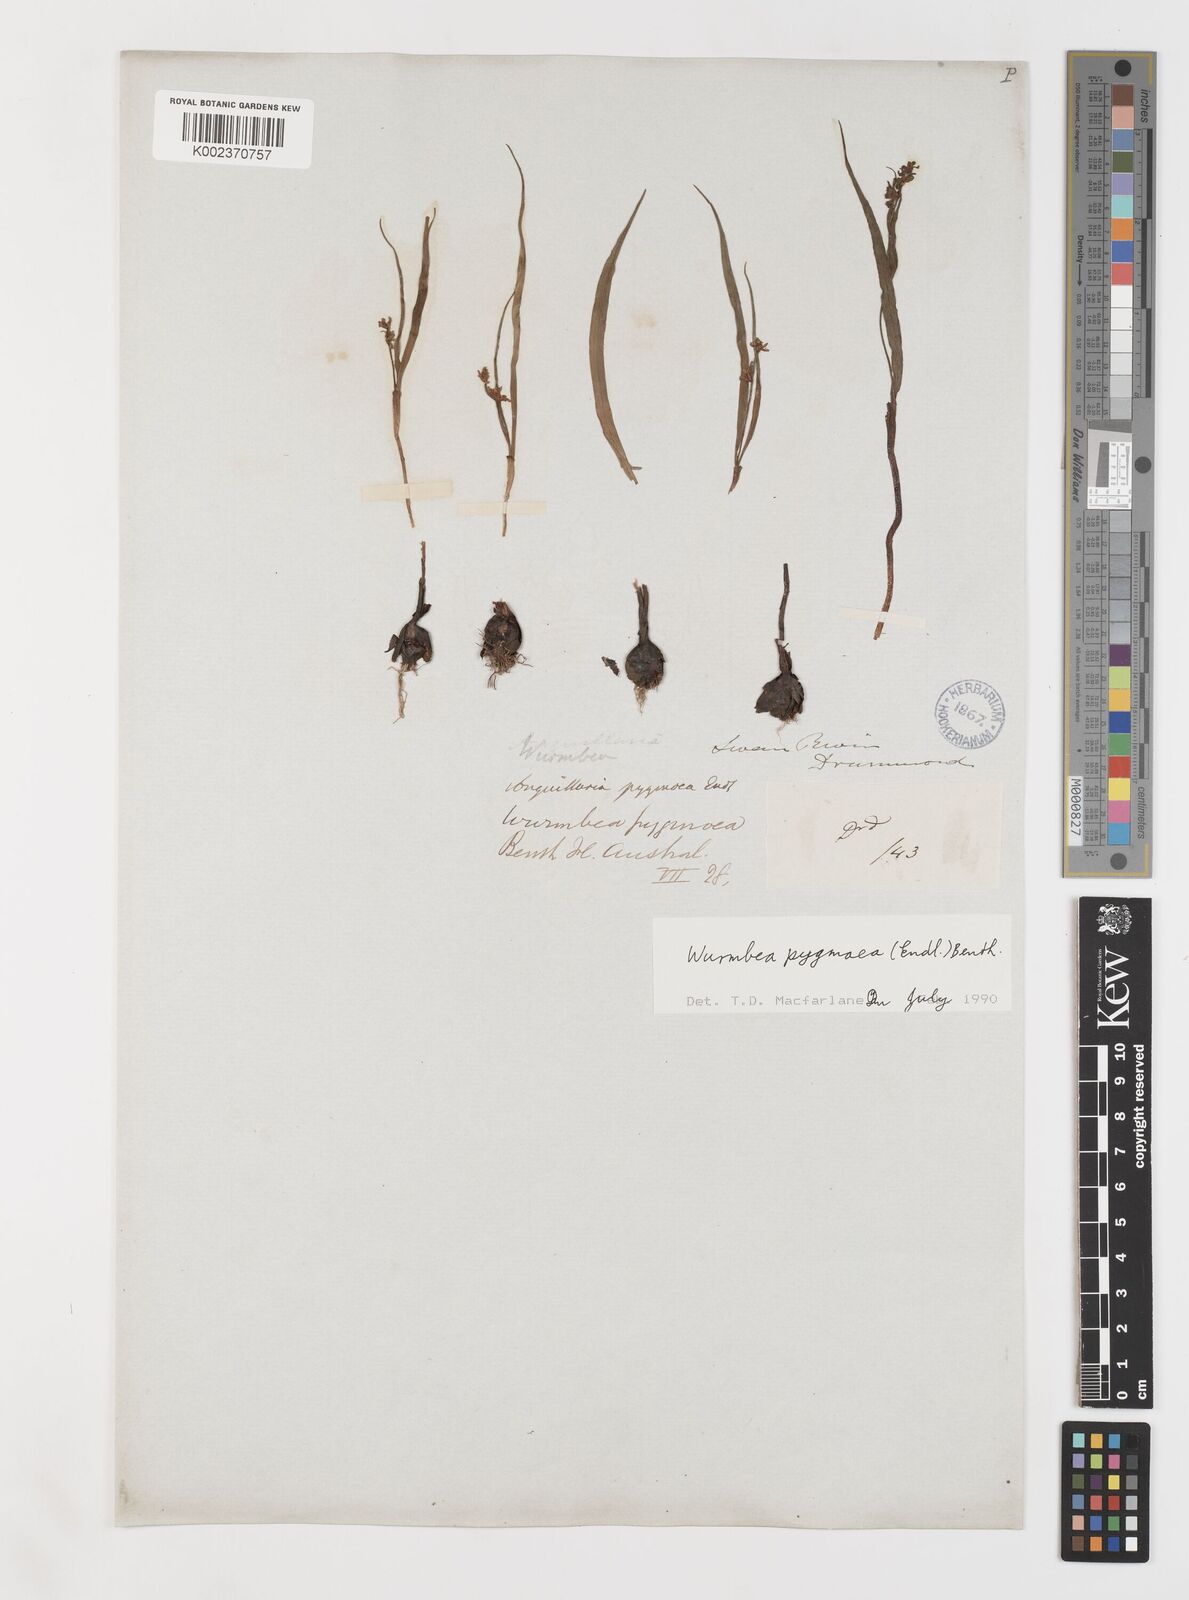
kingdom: Plantae
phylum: Tracheophyta
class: Liliopsida
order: Liliales
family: Colchicaceae
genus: Wurmbea
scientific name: Wurmbea pygmaea
